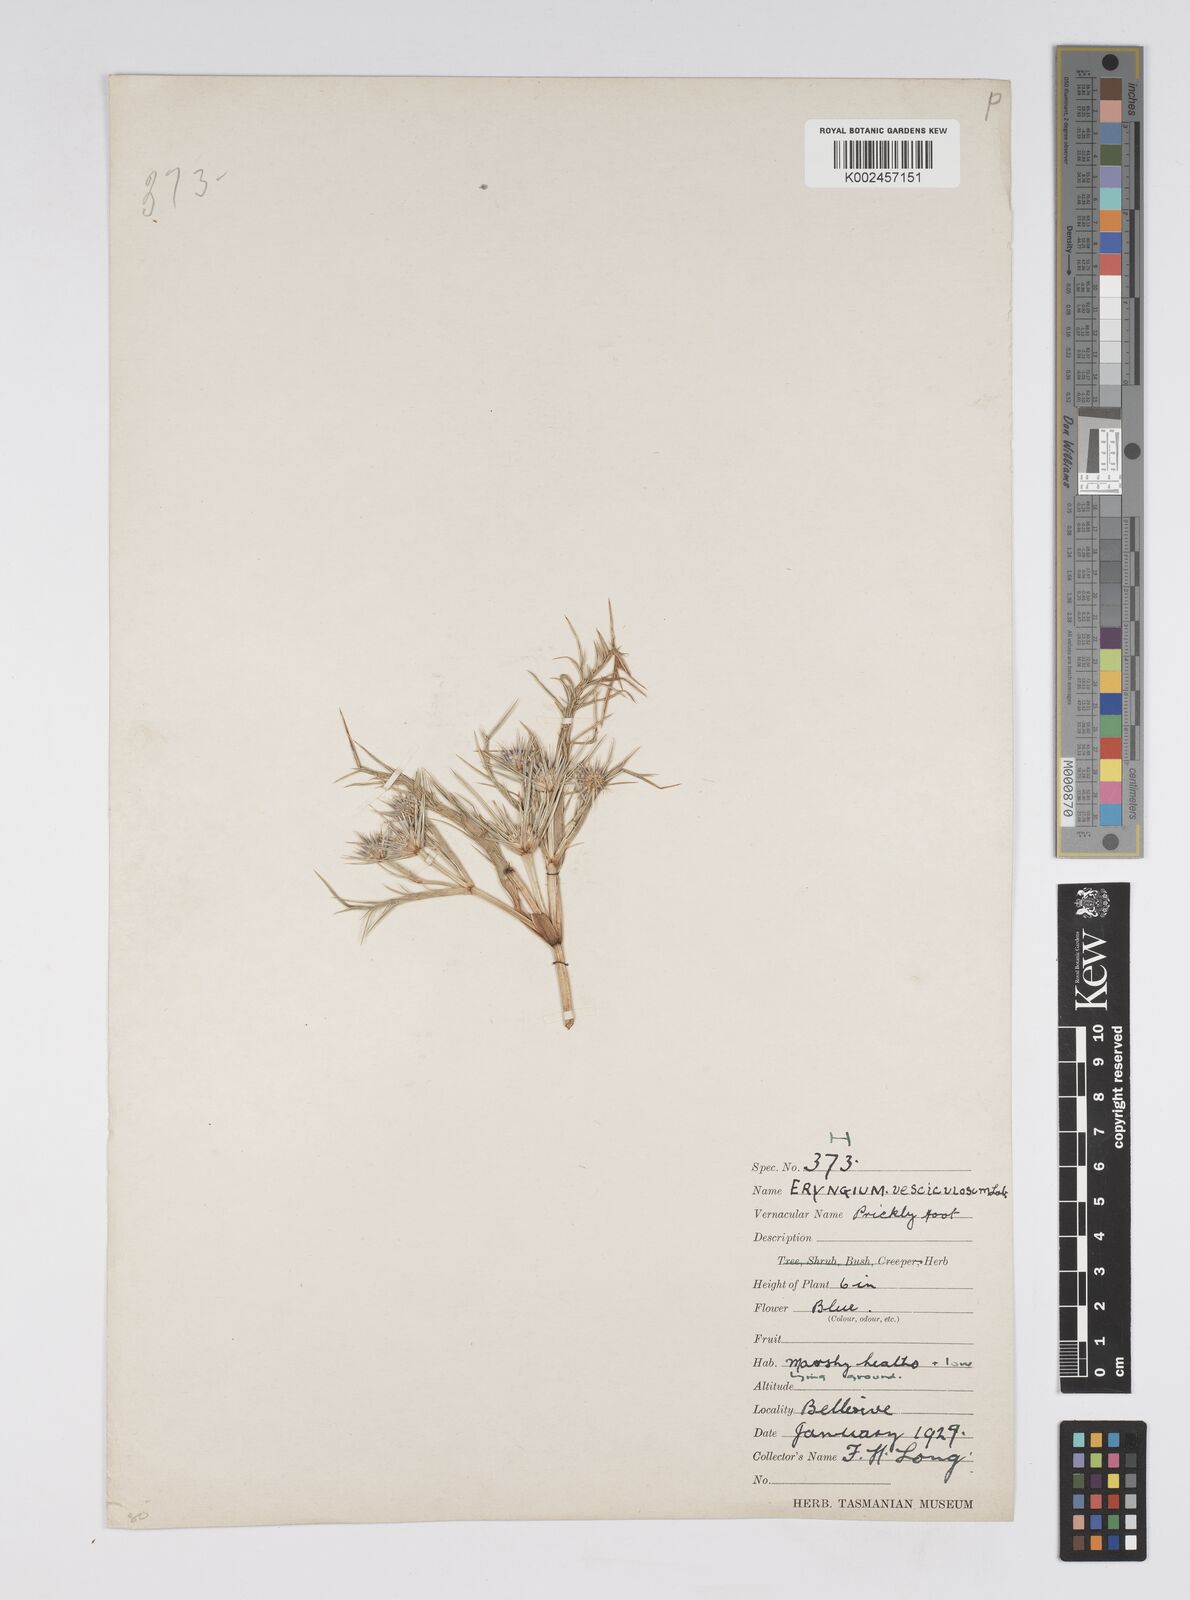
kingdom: Plantae
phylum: Tracheophyta
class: Magnoliopsida
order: Apiales
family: Apiaceae
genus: Eryngium
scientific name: Eryngium vesiculosum
